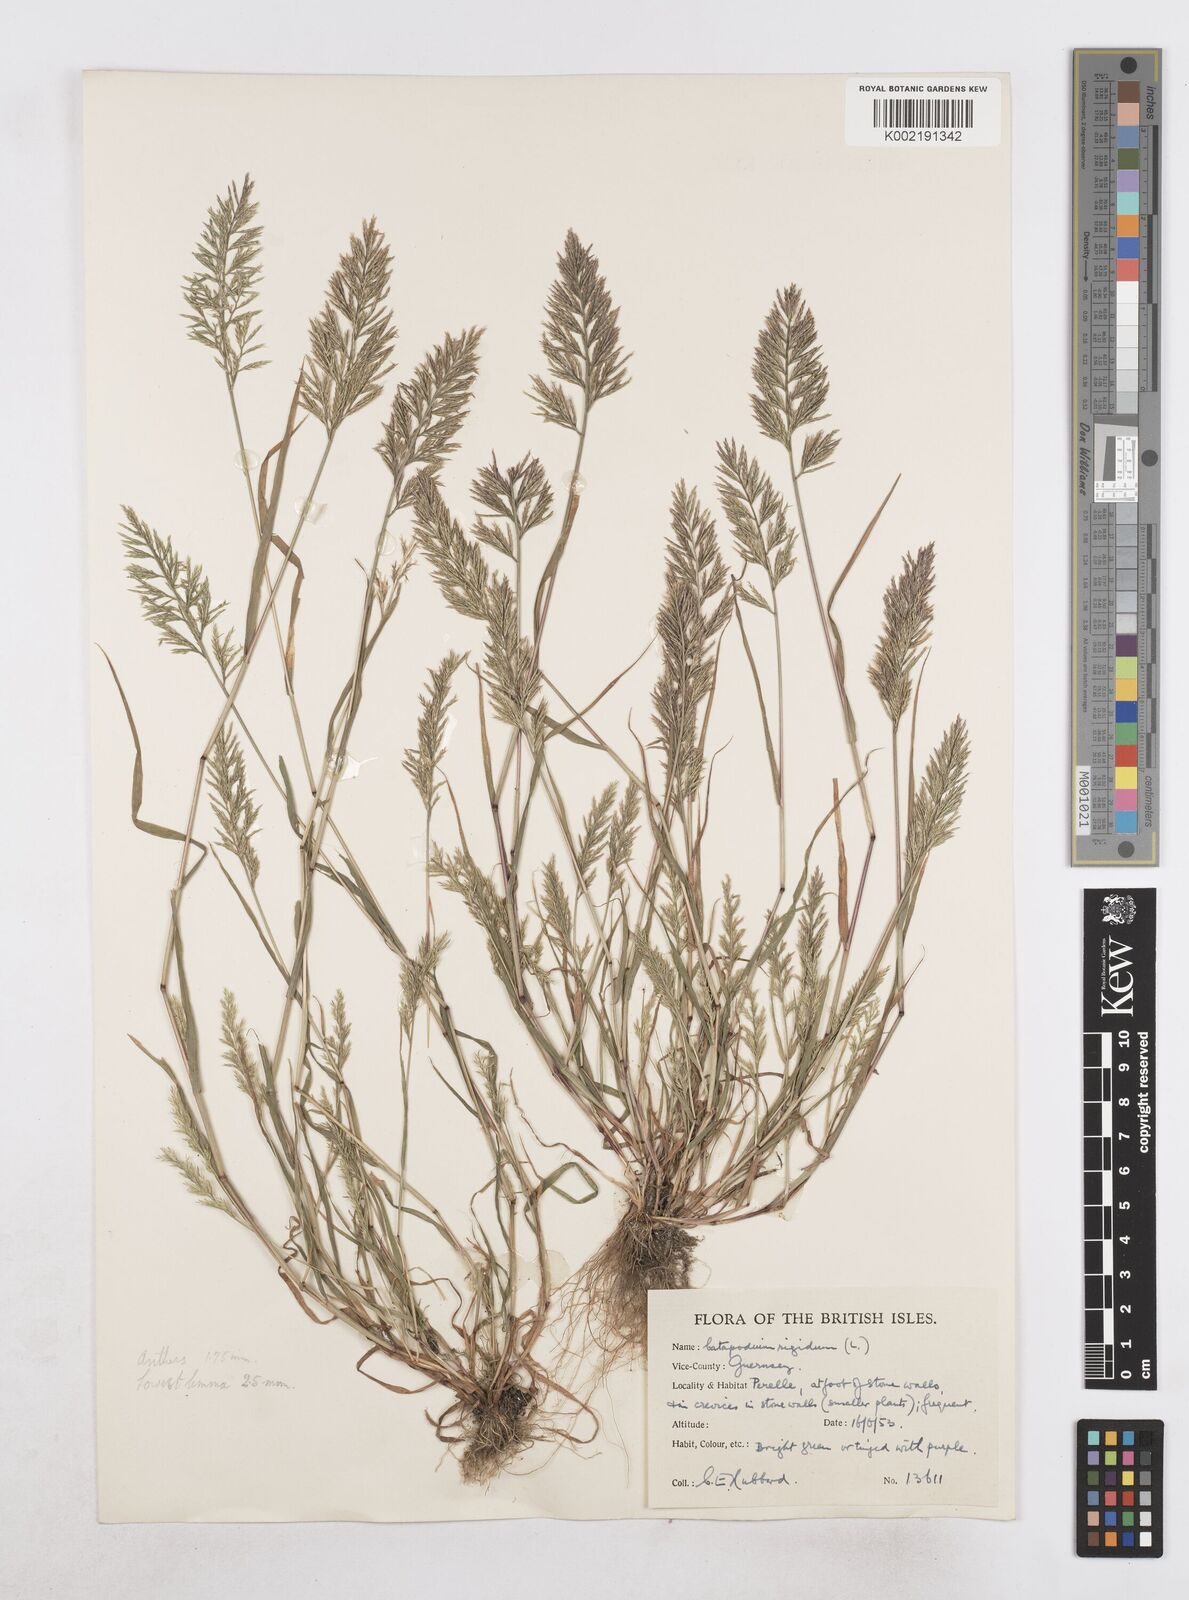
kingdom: Plantae
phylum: Tracheophyta
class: Liliopsida
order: Poales
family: Poaceae
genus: Catapodium
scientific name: Catapodium rigidum
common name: Fern-grass
